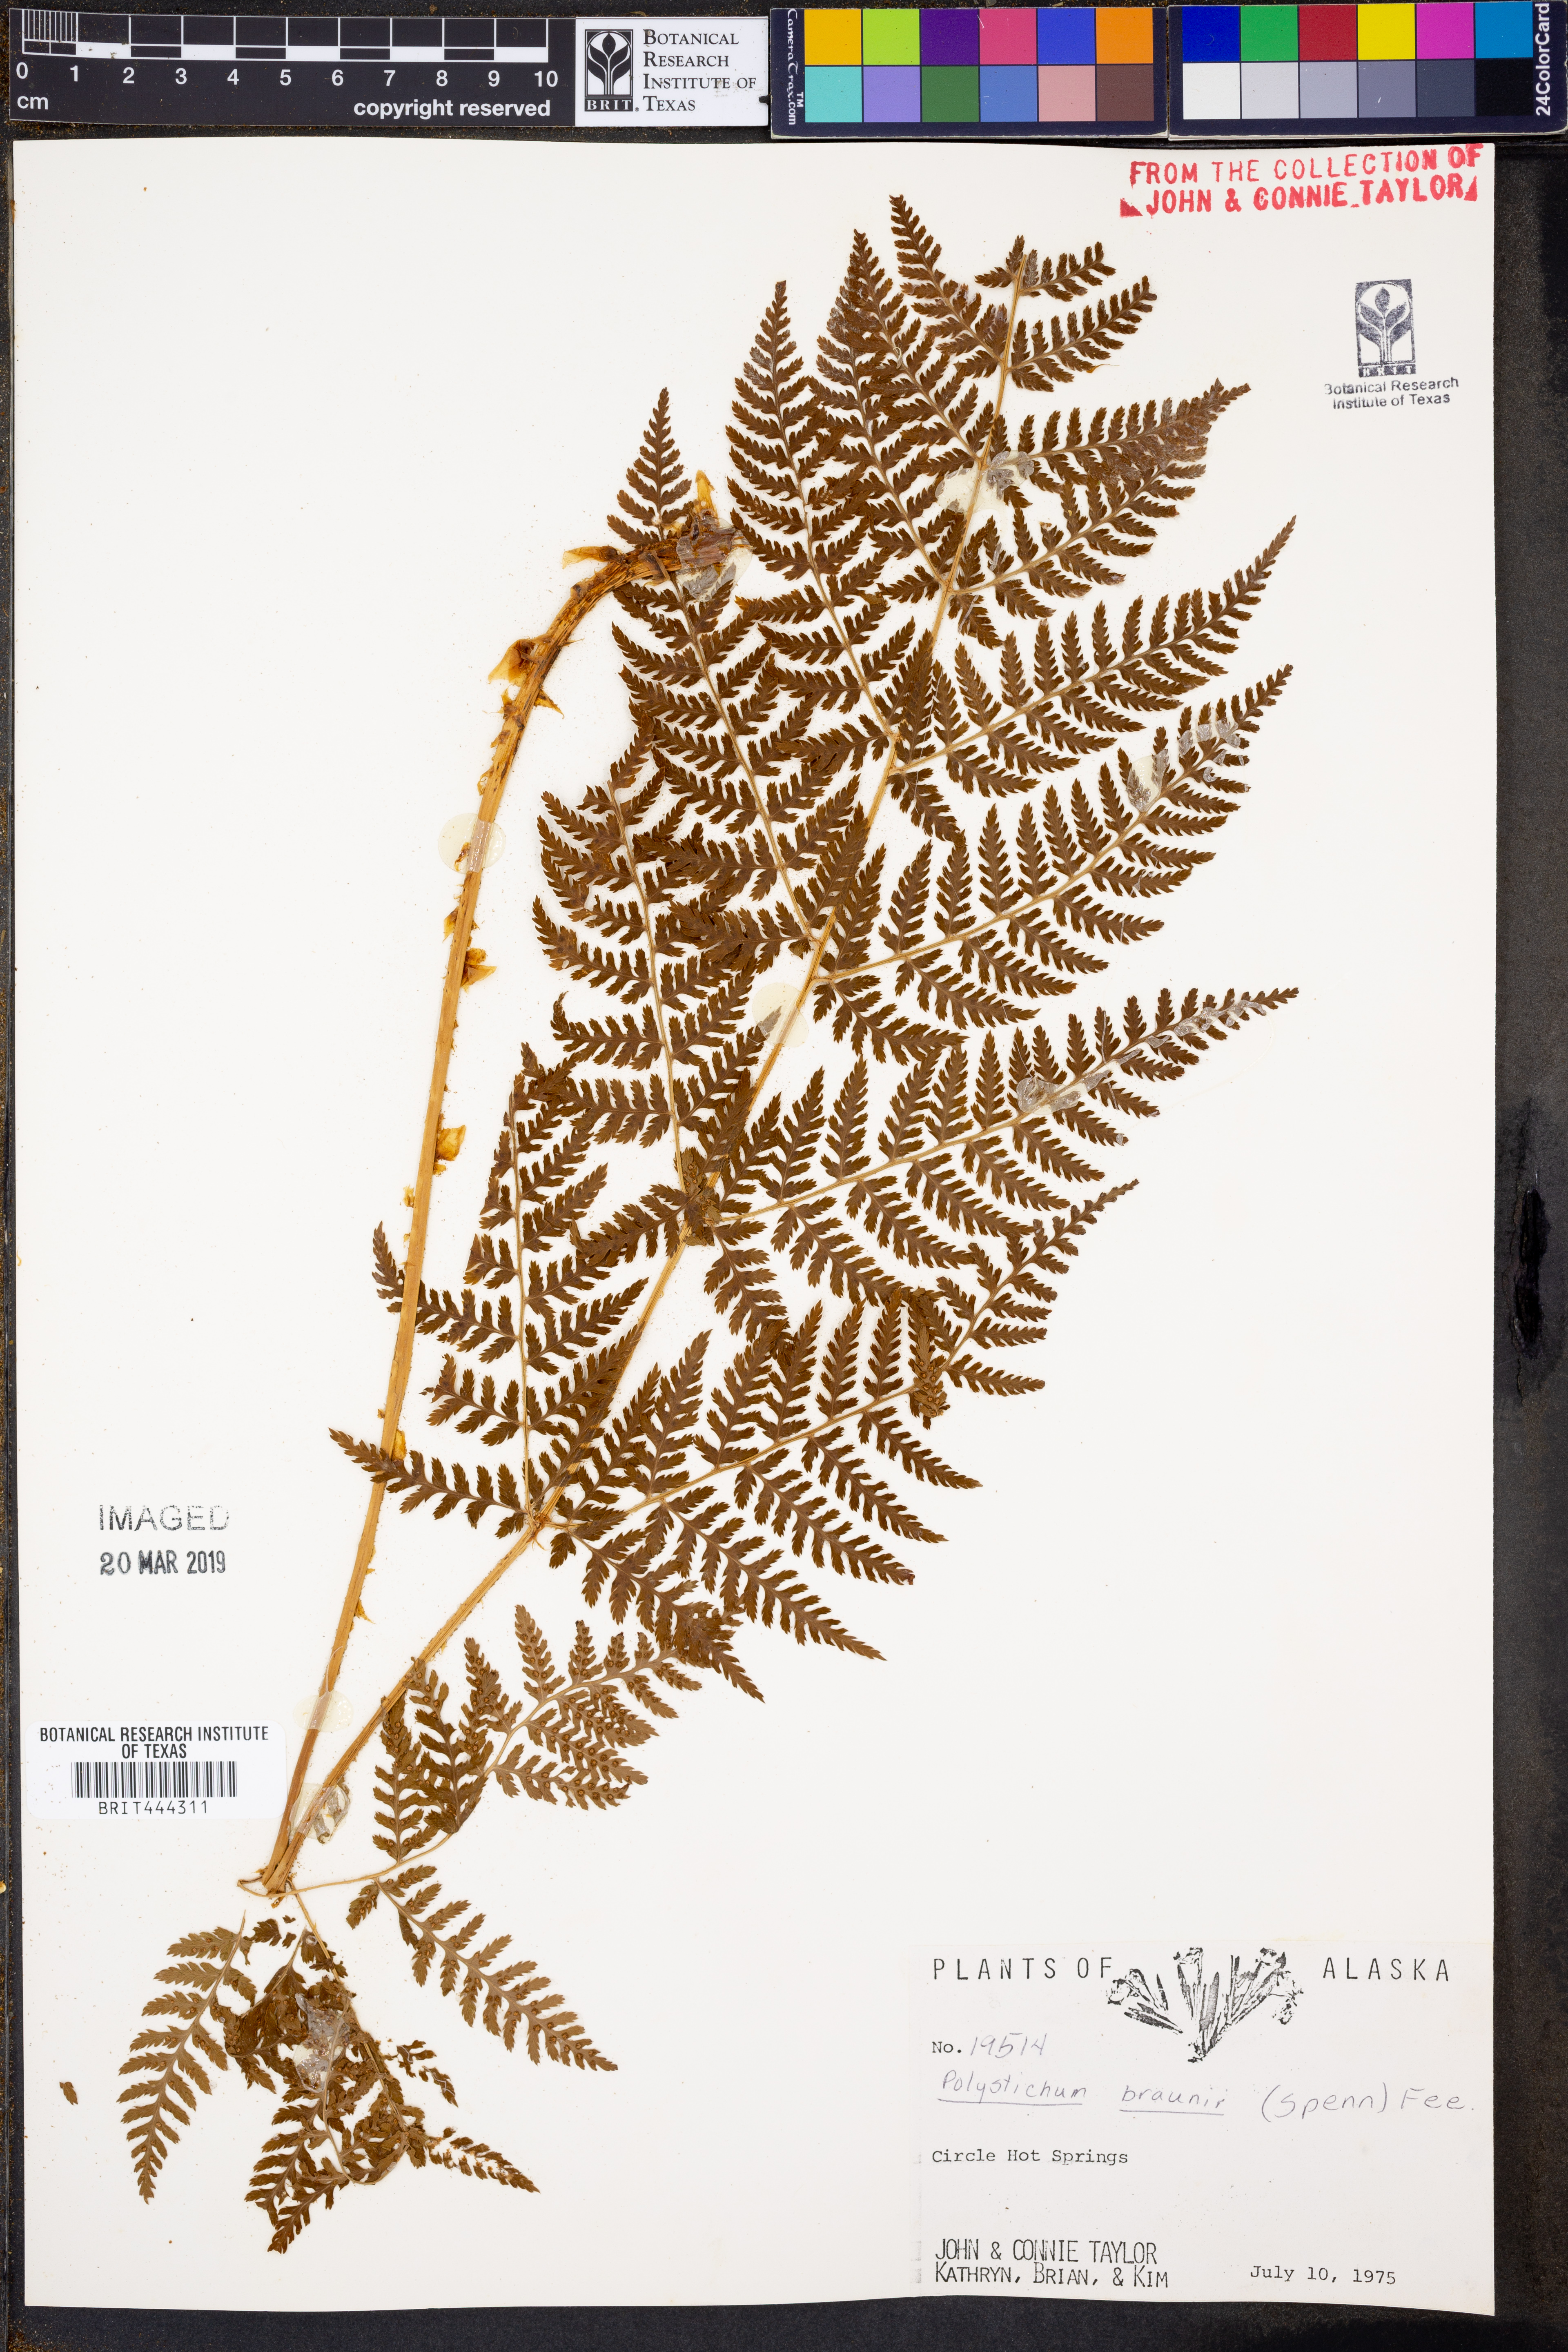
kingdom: Plantae
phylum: Tracheophyta
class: Polypodiopsida
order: Polypodiales
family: Dryopteridaceae
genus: Polystichum
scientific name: Polystichum braunii
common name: Braun's holly fern
